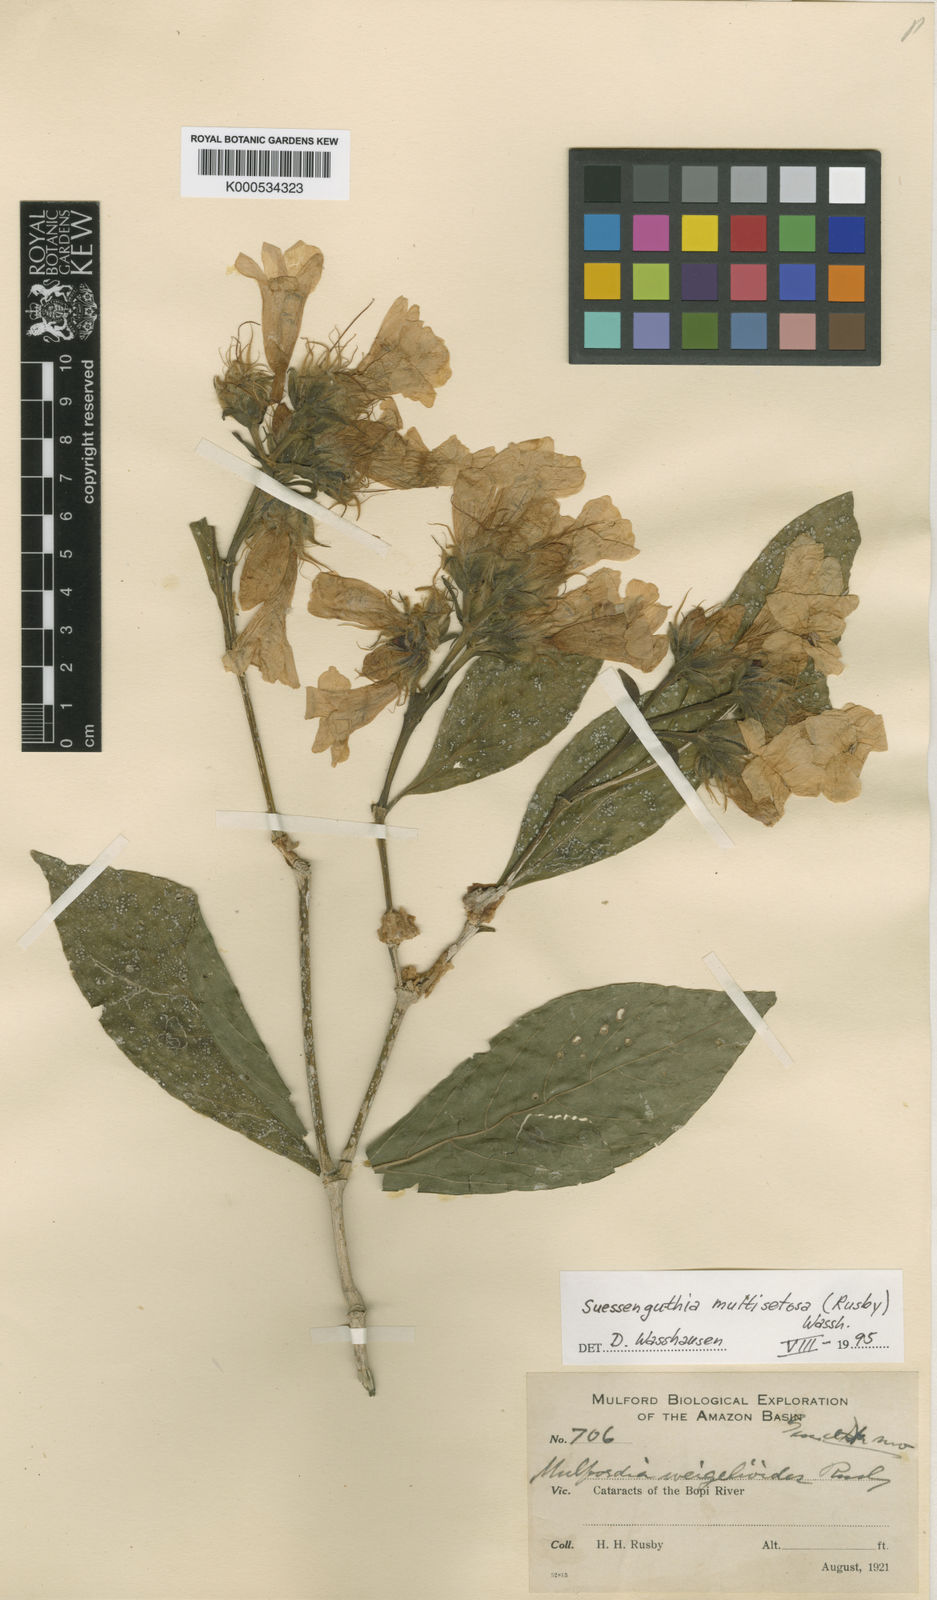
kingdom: Plantae
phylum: Tracheophyta
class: Magnoliopsida
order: Lamiales
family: Acanthaceae
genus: Suessenguthia
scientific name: Suessenguthia
